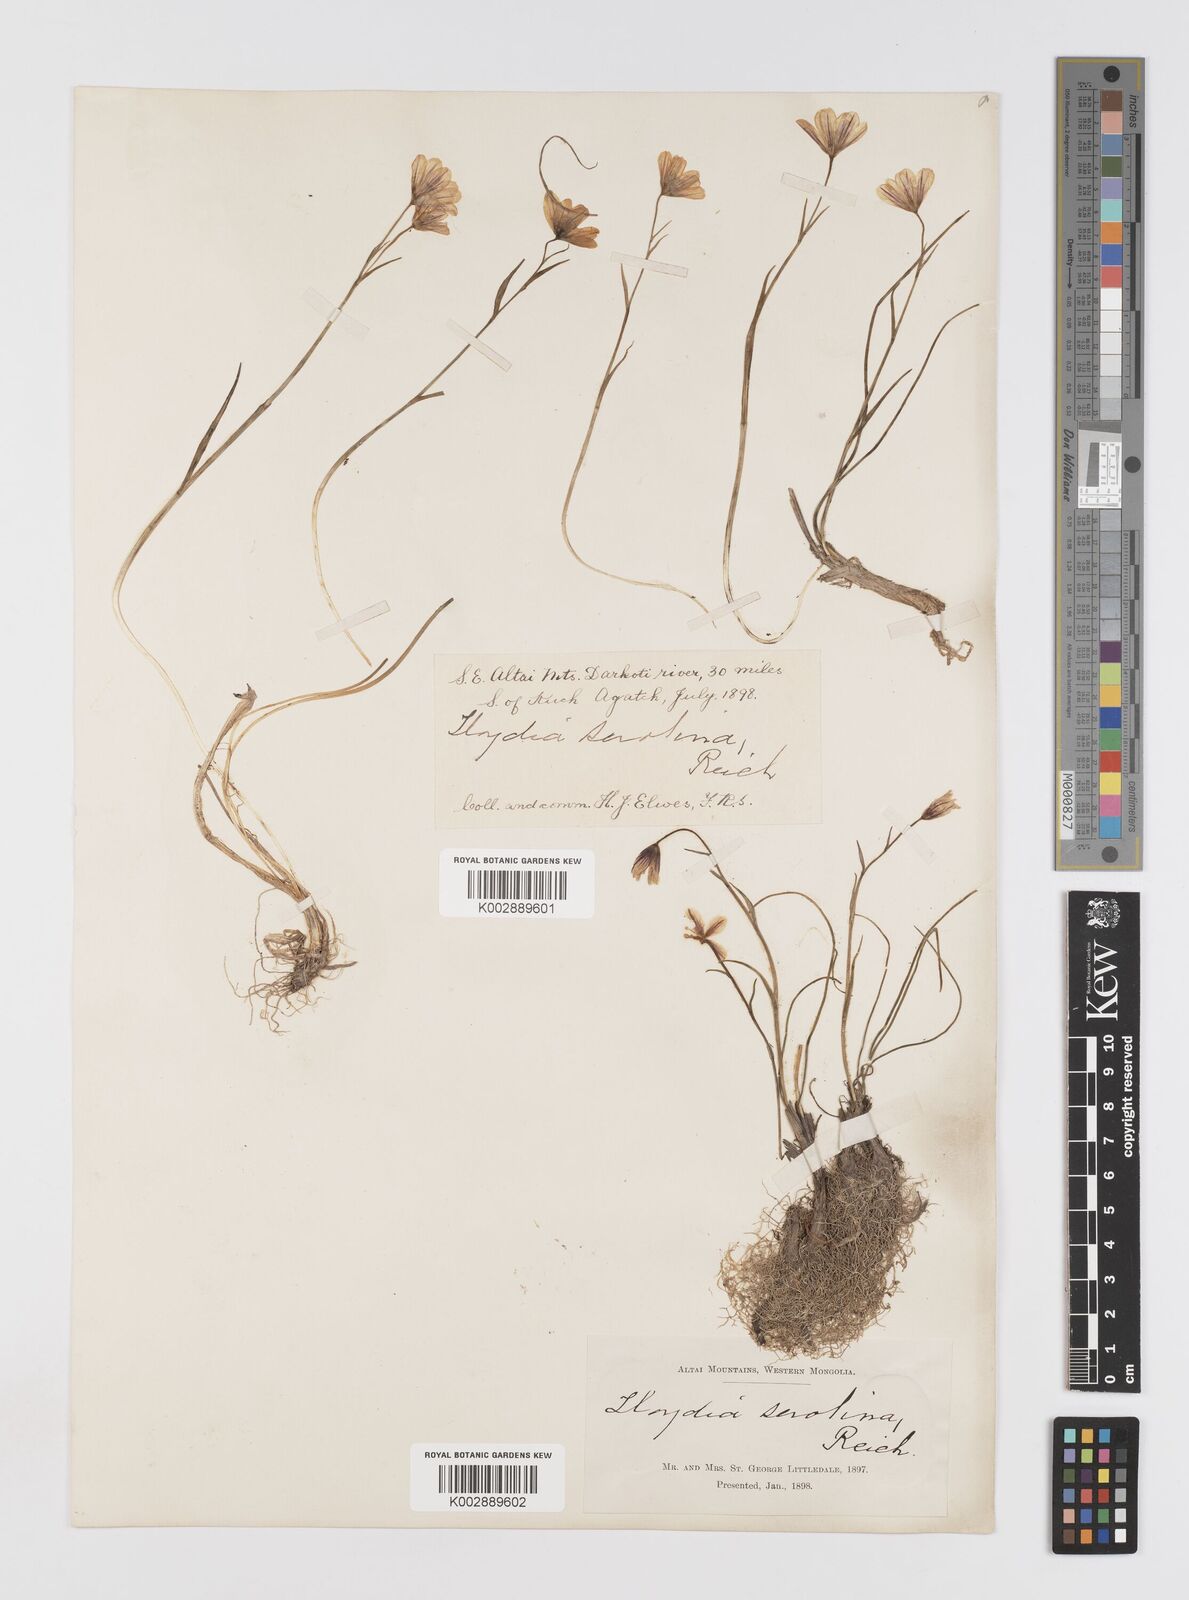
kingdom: Plantae
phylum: Tracheophyta
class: Liliopsida
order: Liliales
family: Liliaceae
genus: Gagea
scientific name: Gagea serotina
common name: Snowdon lily
